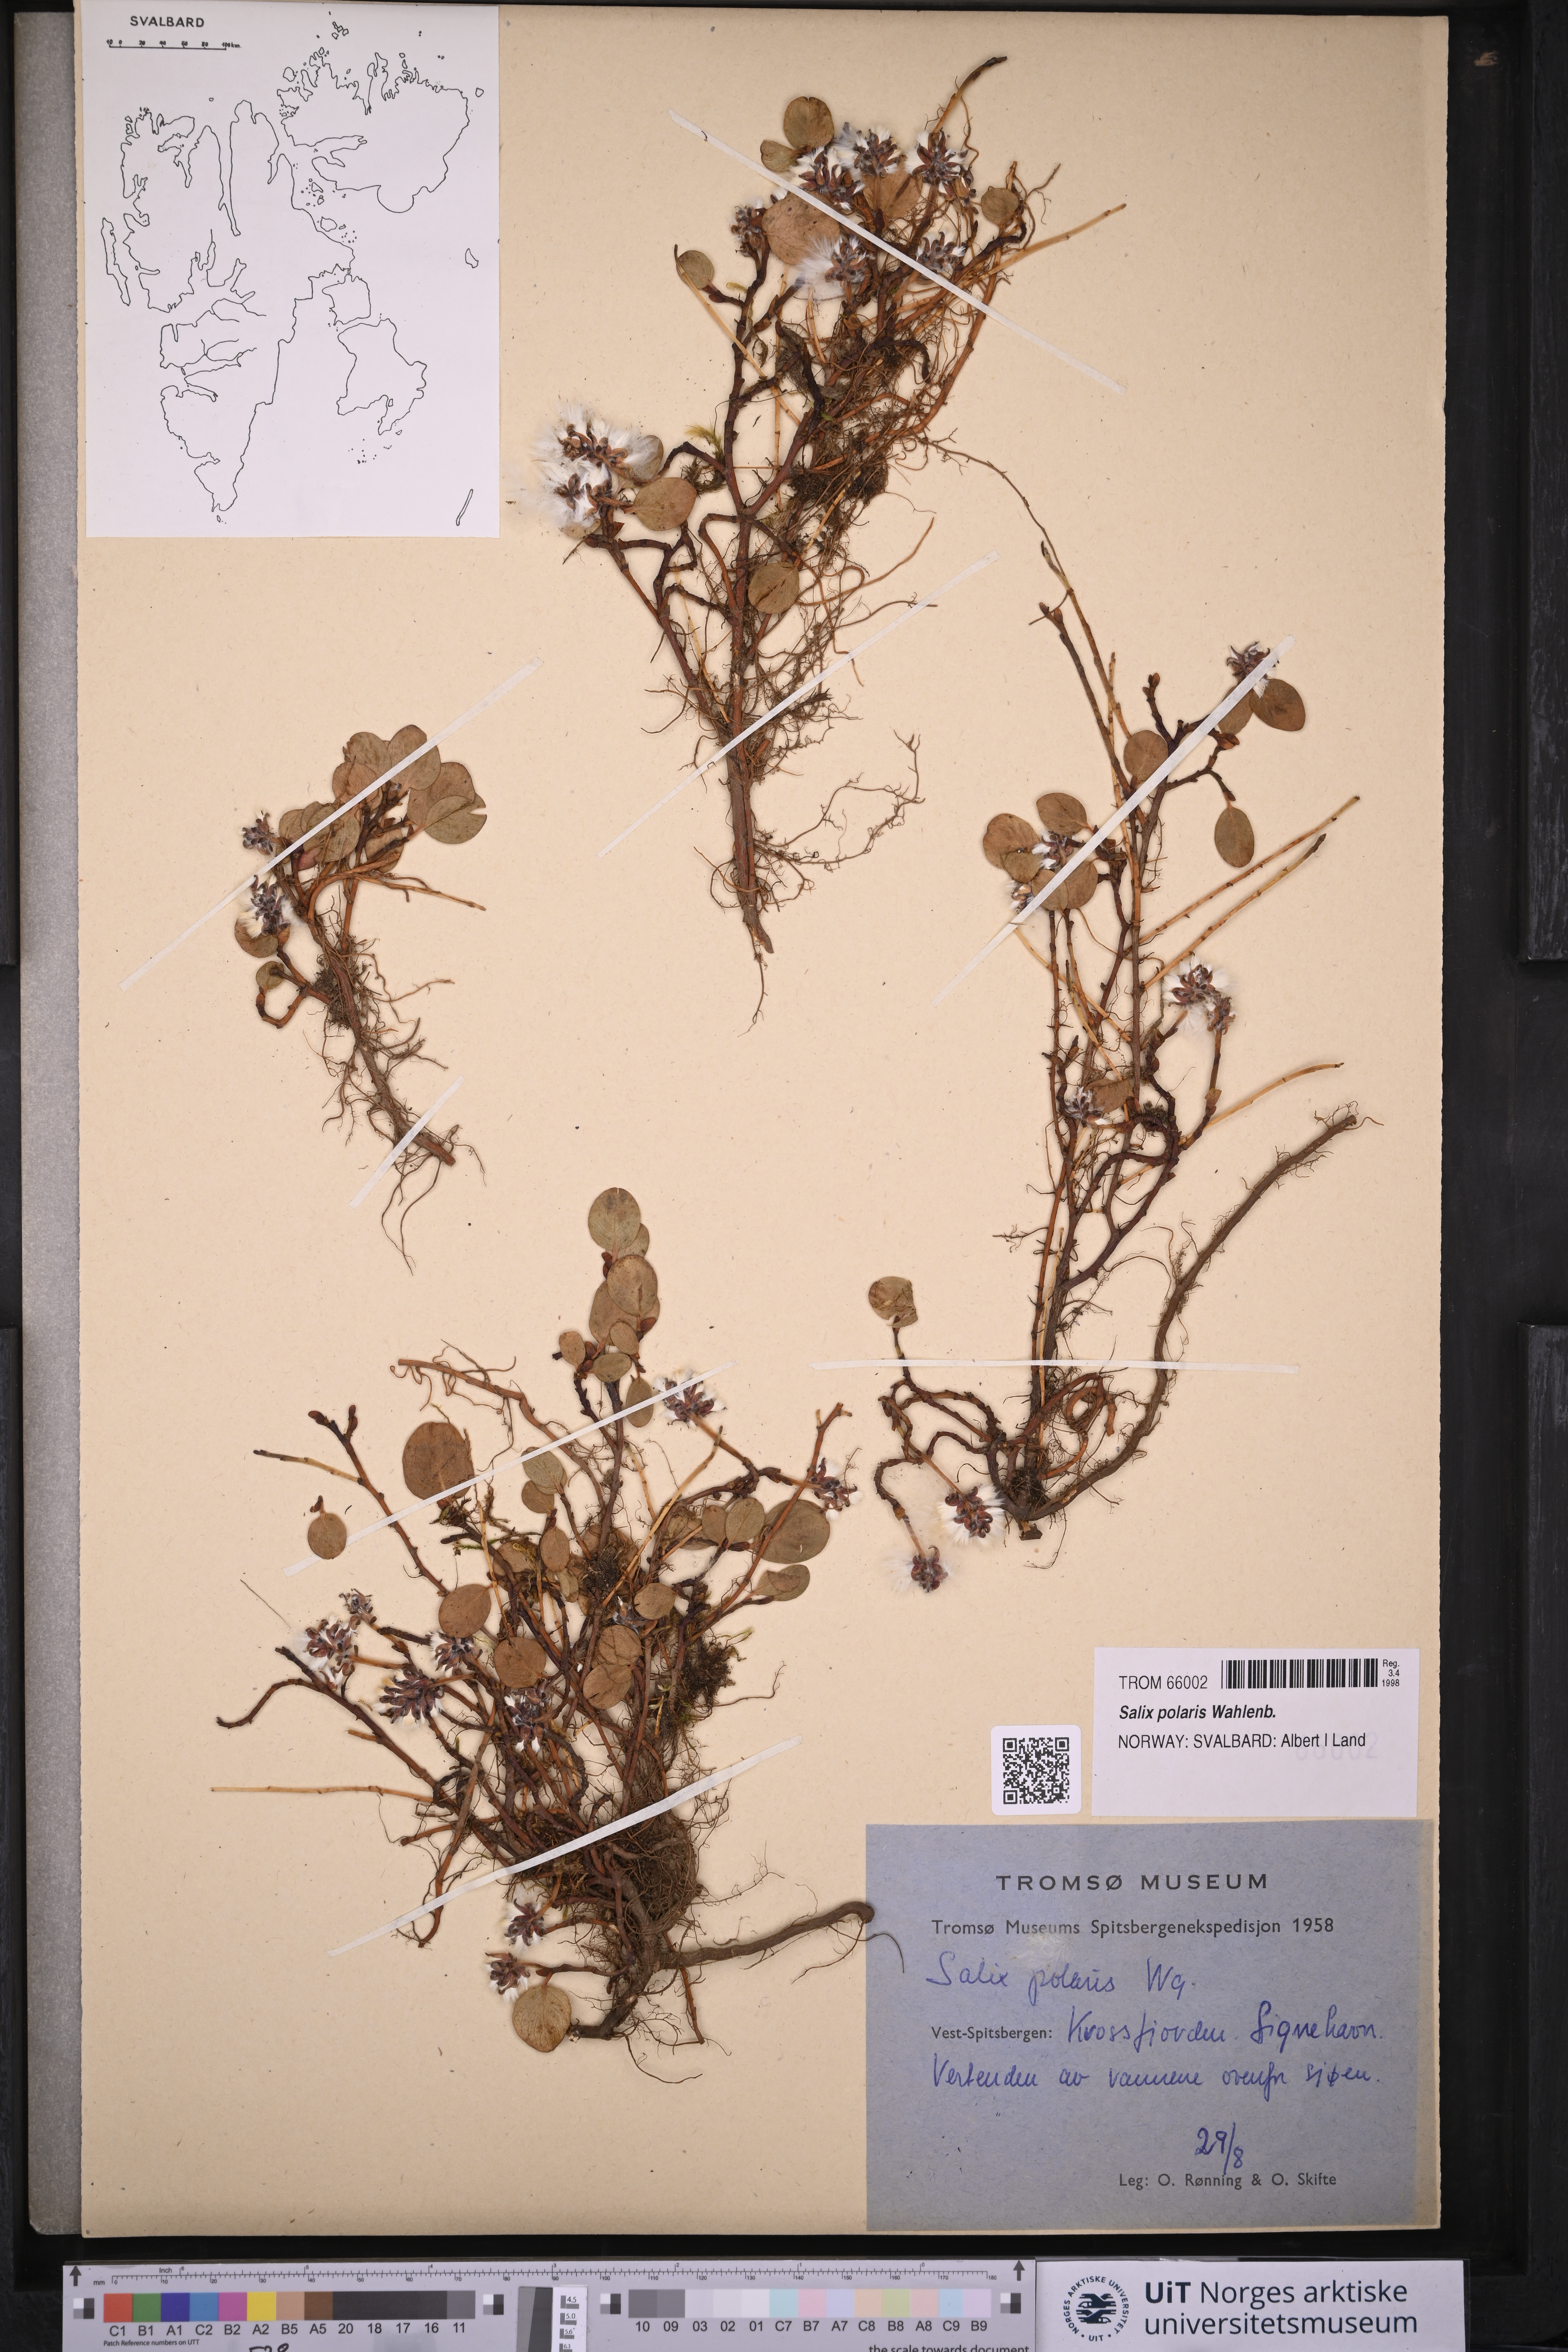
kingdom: Plantae
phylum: Tracheophyta
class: Magnoliopsida
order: Malpighiales
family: Salicaceae
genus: Salix
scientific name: Salix polaris
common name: Polar willow
